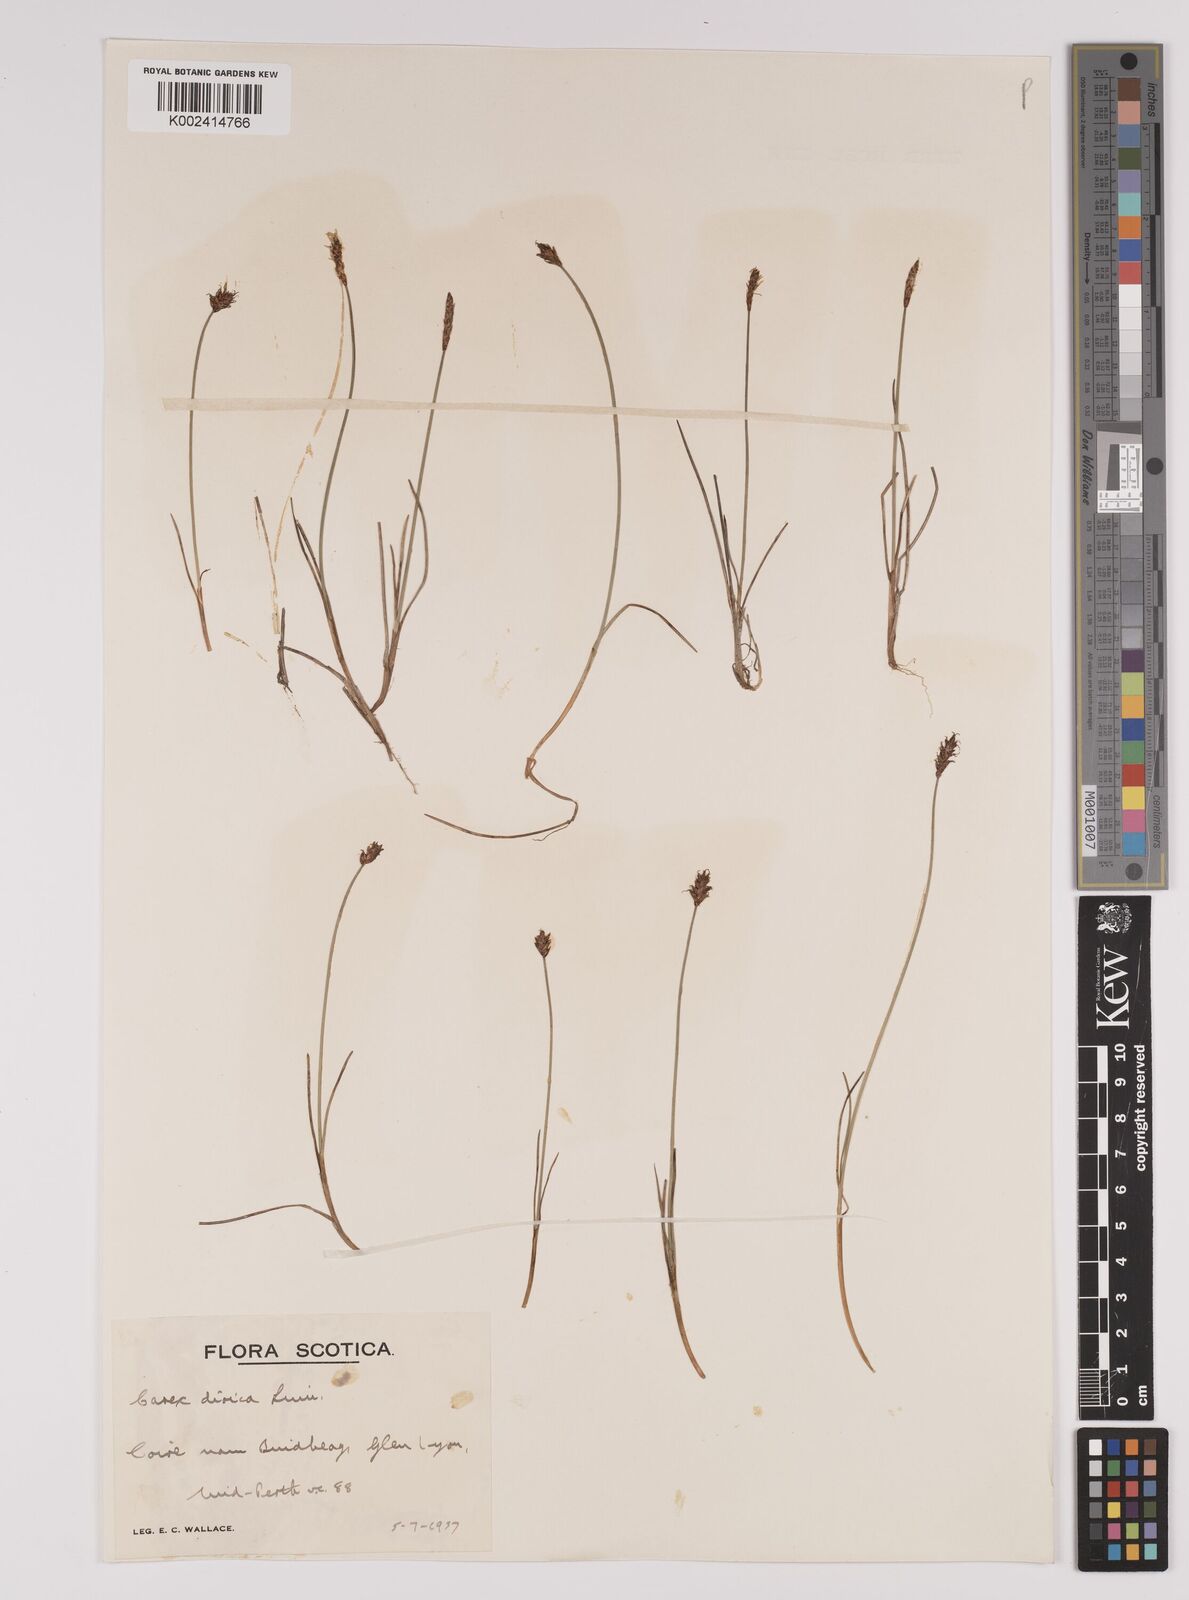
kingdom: Plantae
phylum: Tracheophyta
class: Liliopsida
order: Poales
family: Cyperaceae
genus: Carex
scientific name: Carex dioica
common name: Dioecious sedge
